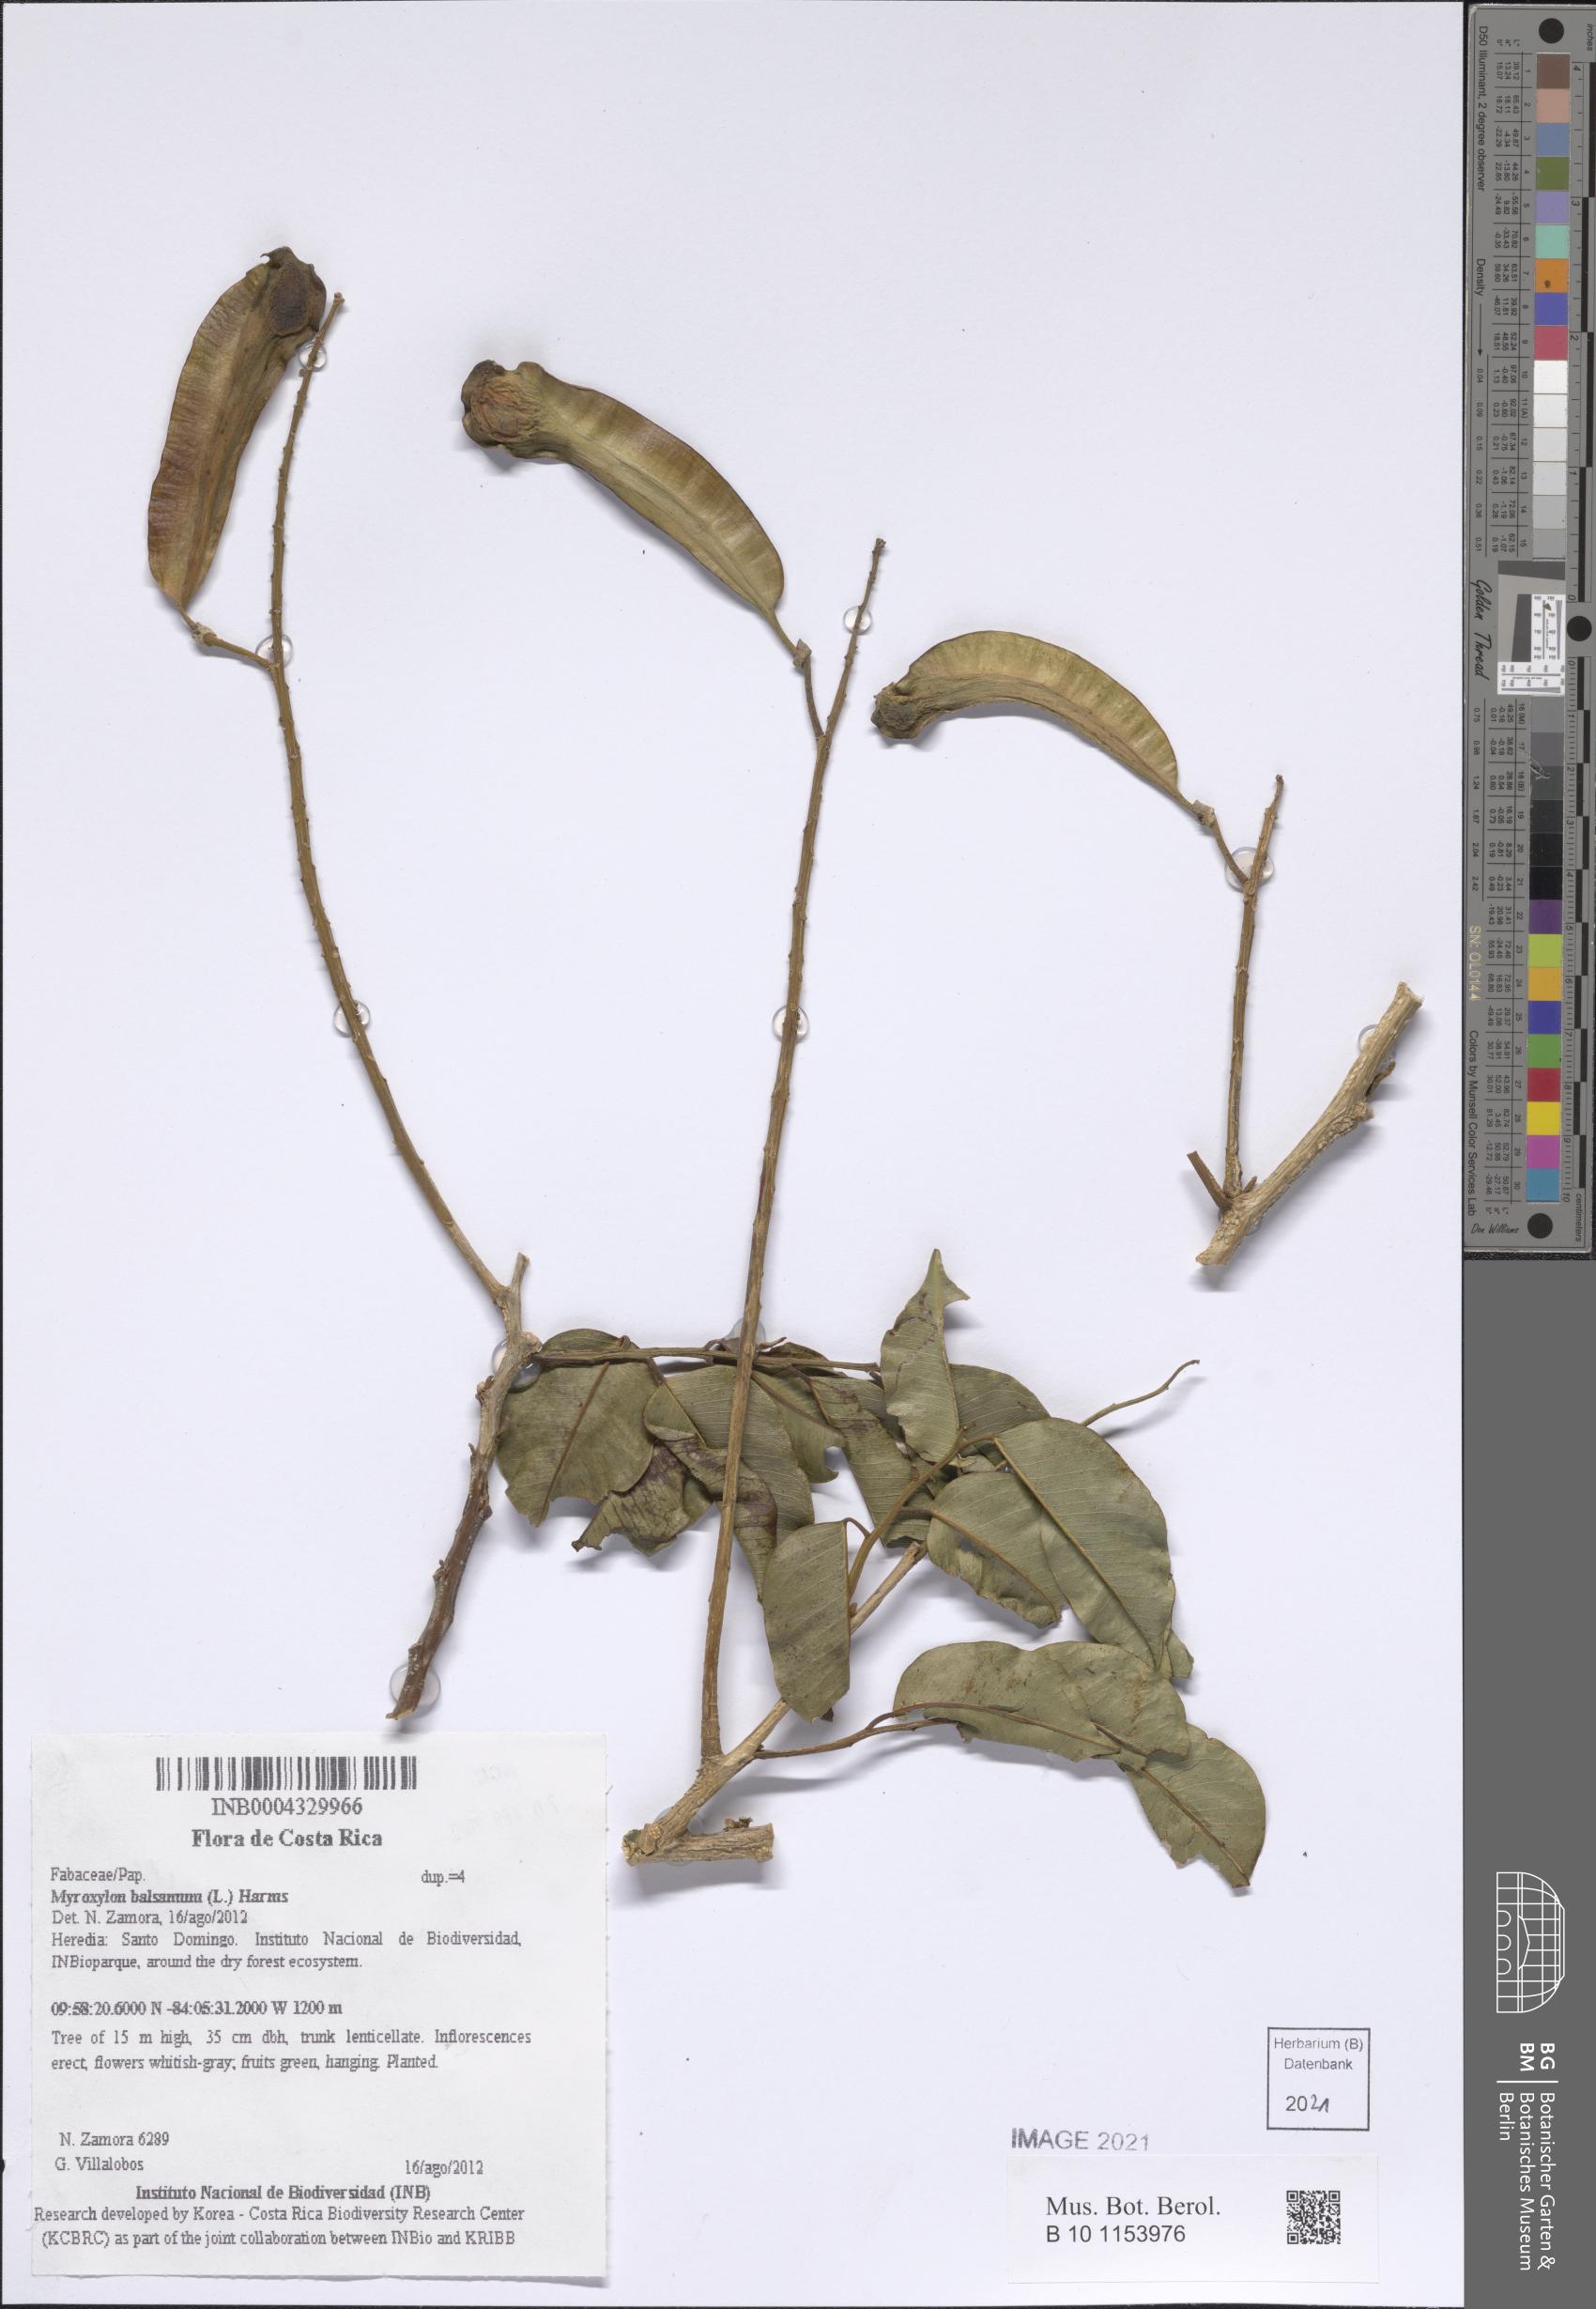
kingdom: Plantae
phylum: Tracheophyta
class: Magnoliopsida
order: Fabales
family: Fabaceae
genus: Myroxylon
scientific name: Myroxylon balsamum
